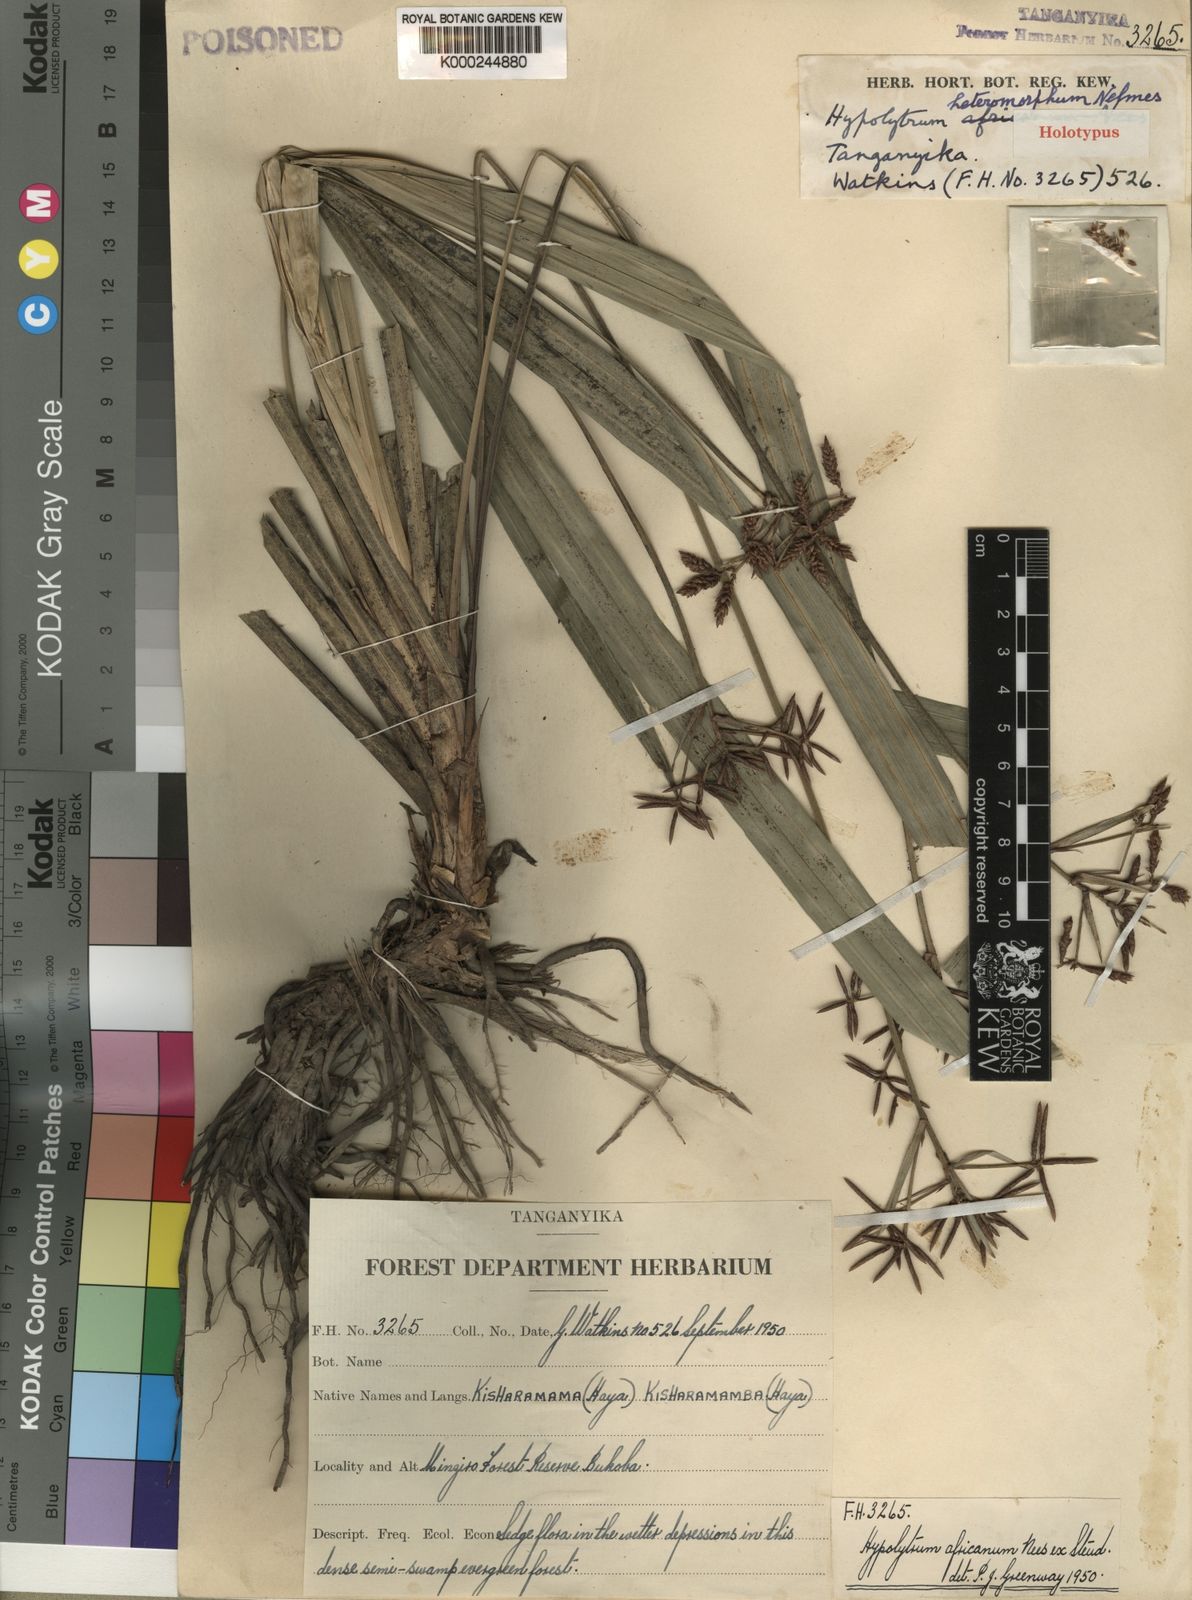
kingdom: Plantae
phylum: Tracheophyta
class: Liliopsida
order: Poales
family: Cyperaceae
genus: Hypolytrum
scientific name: Hypolytrum heteromorphum
